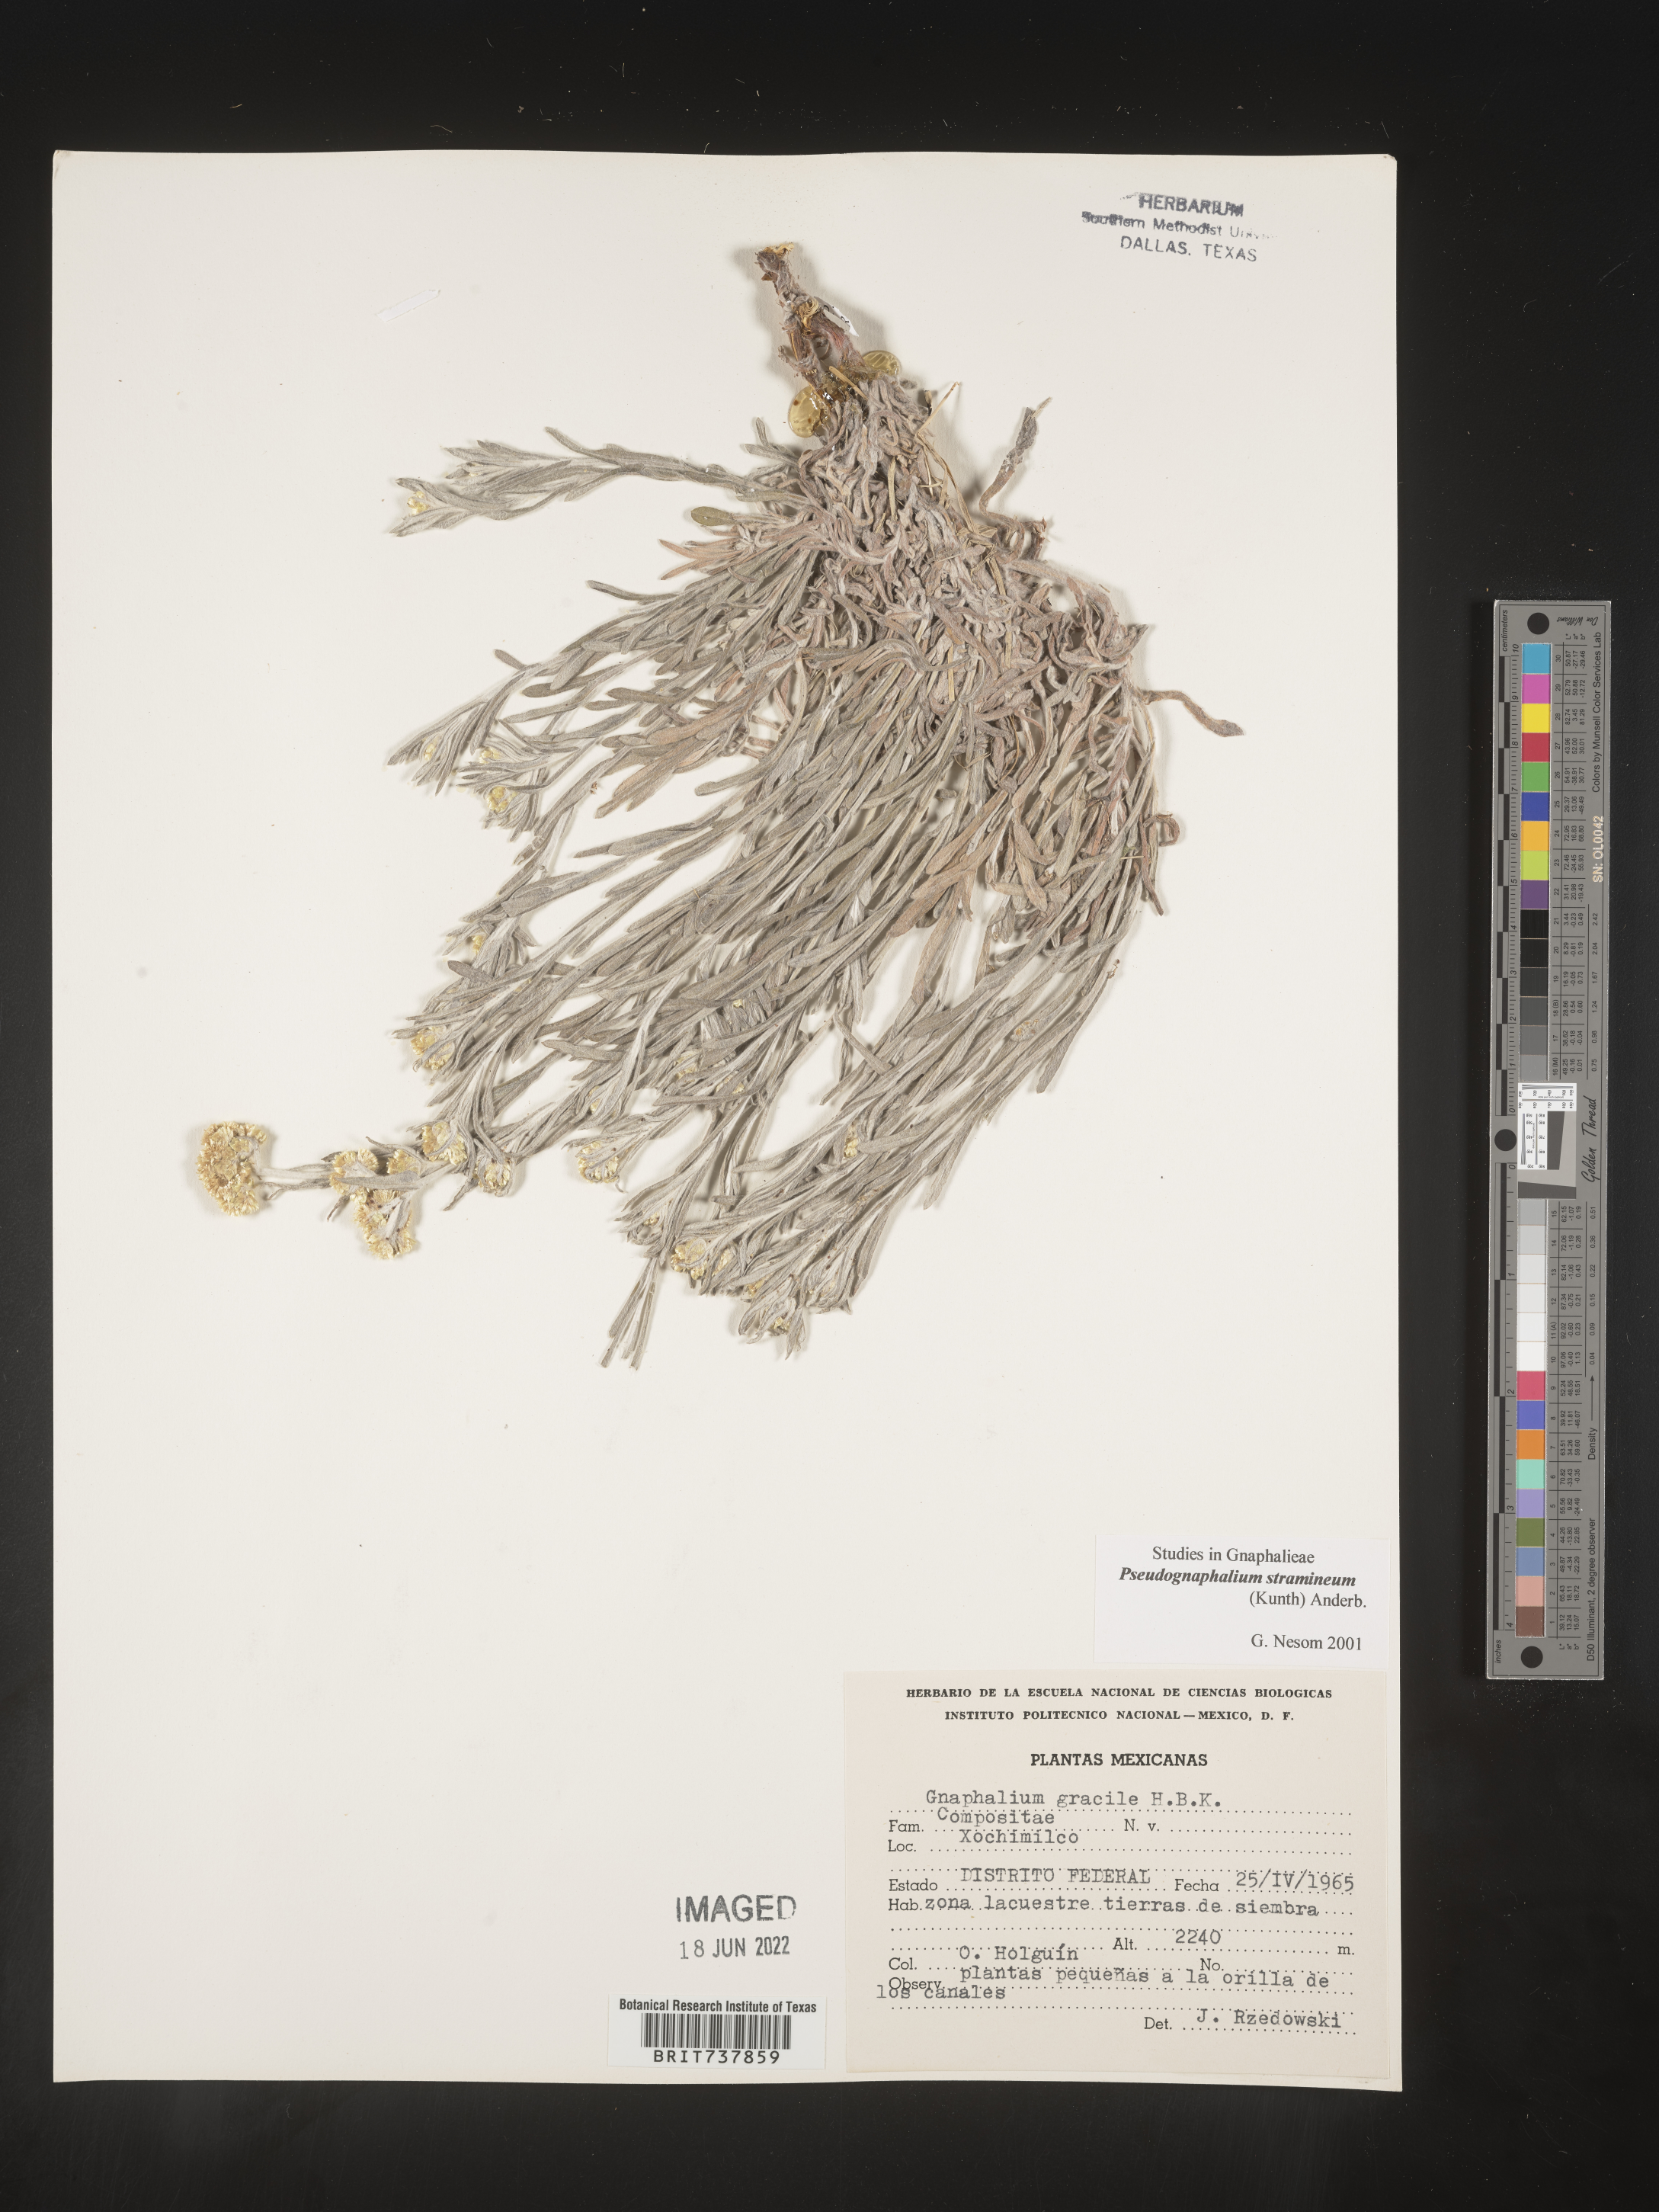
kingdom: Plantae
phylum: Tracheophyta
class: Magnoliopsida
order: Asterales
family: Asteraceae
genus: Pseudognaphalium
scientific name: Pseudognaphalium stramineum
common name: Cotton-batting-plant
